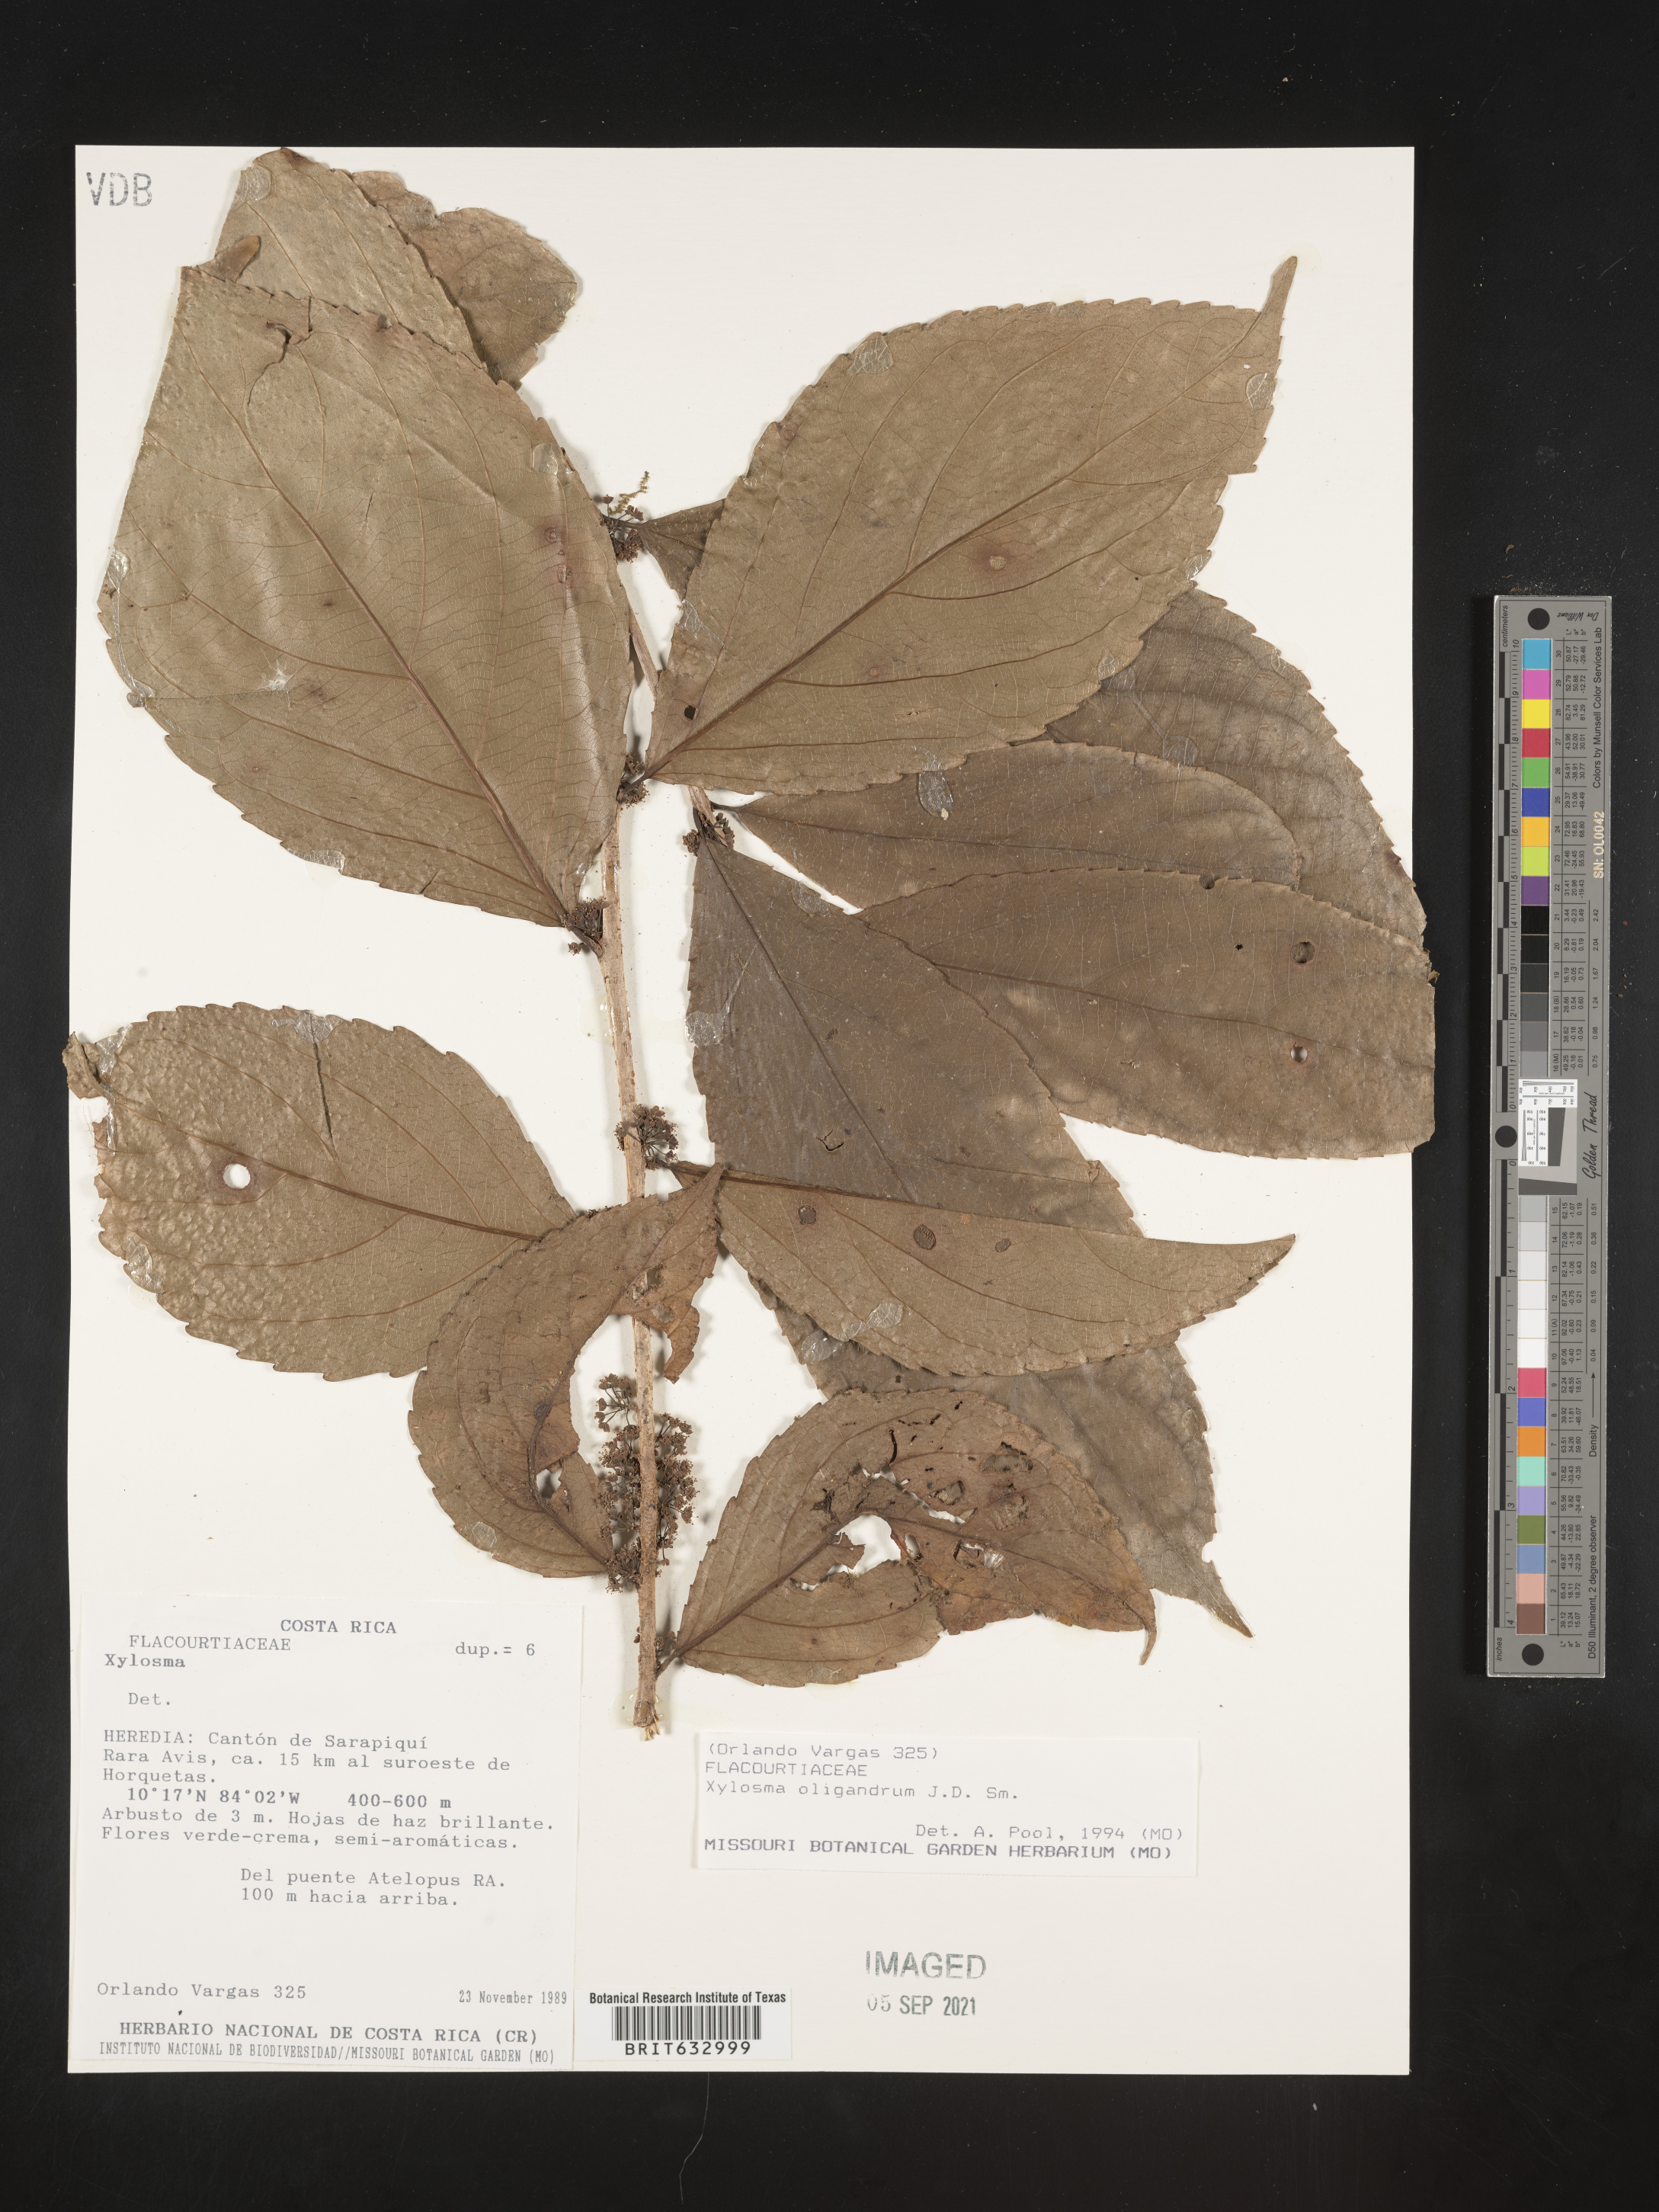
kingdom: Plantae
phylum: Tracheophyta
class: Magnoliopsida
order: Malpighiales
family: Salicaceae
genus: Xylosma
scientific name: Xylosma
